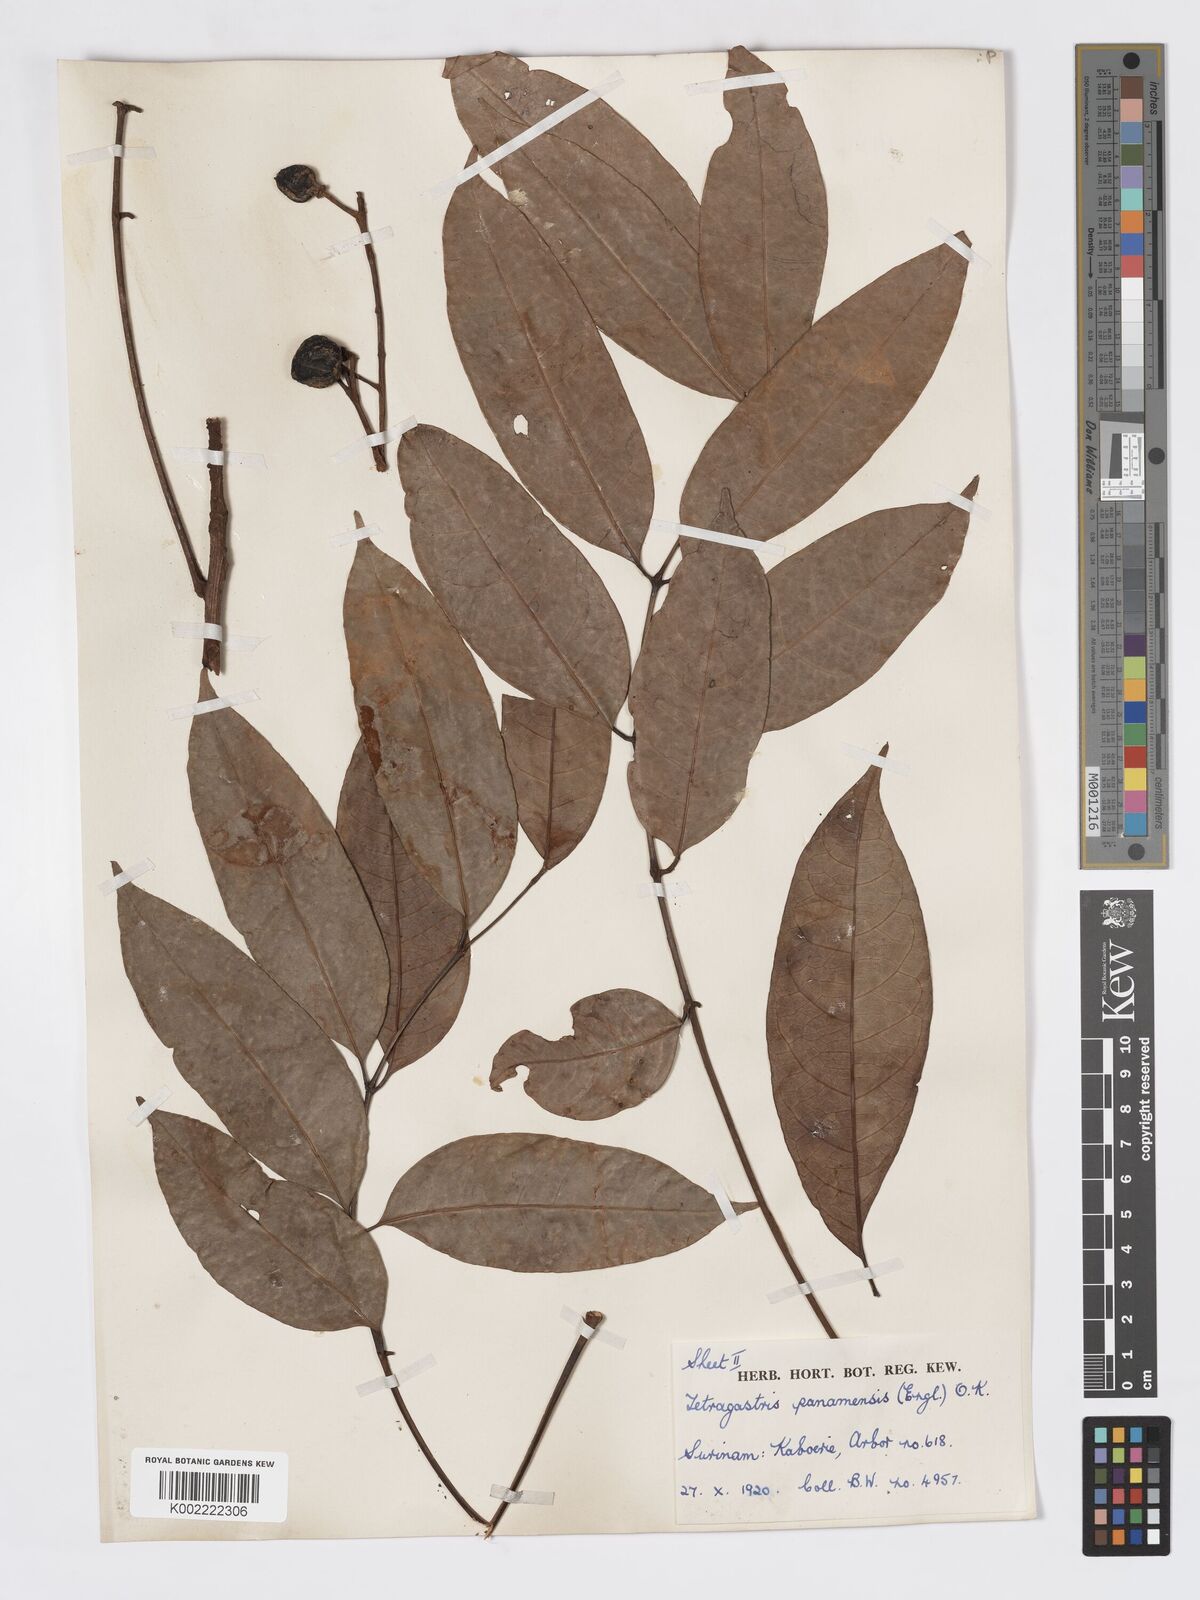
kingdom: Plantae
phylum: Tracheophyta
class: Magnoliopsida
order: Sapindales
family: Burseraceae
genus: Tetragastris
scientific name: Tetragastris panamensis
